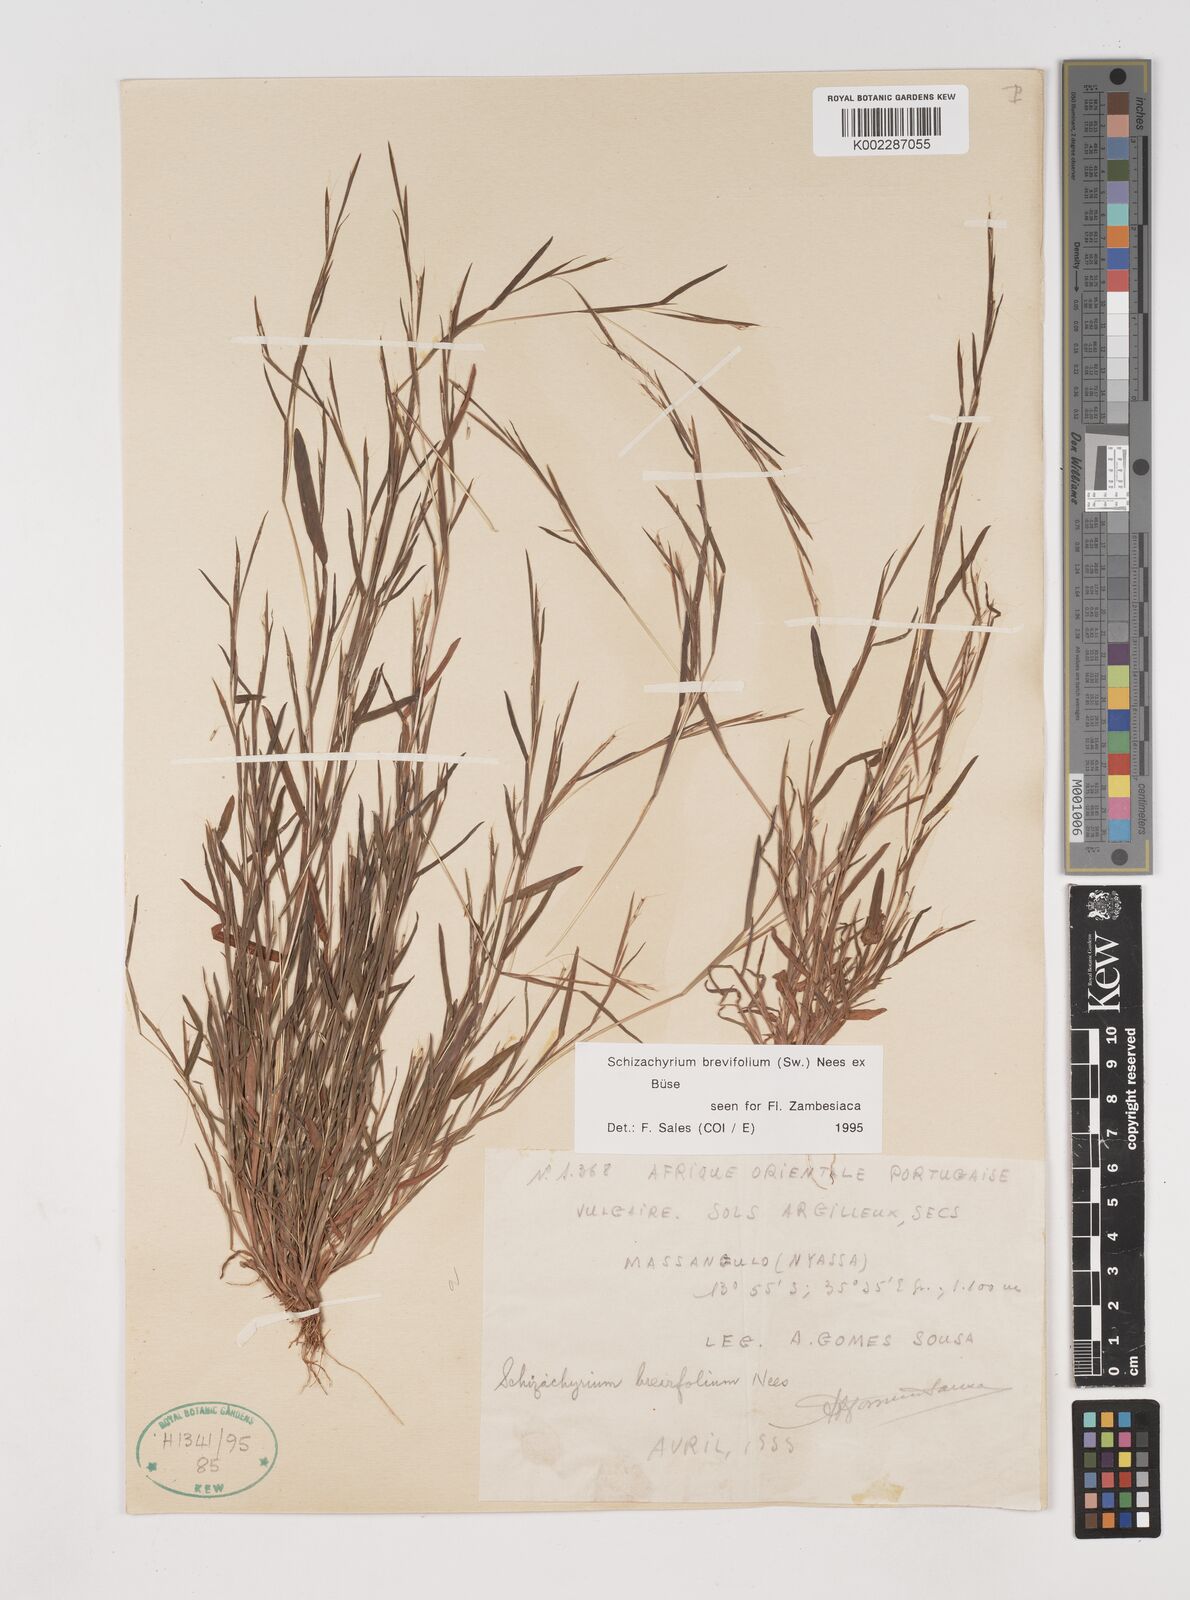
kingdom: Plantae
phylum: Tracheophyta
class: Liliopsida
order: Poales
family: Poaceae
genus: Schizachyrium
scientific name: Schizachyrium brevifolium
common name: Serillo dulce
